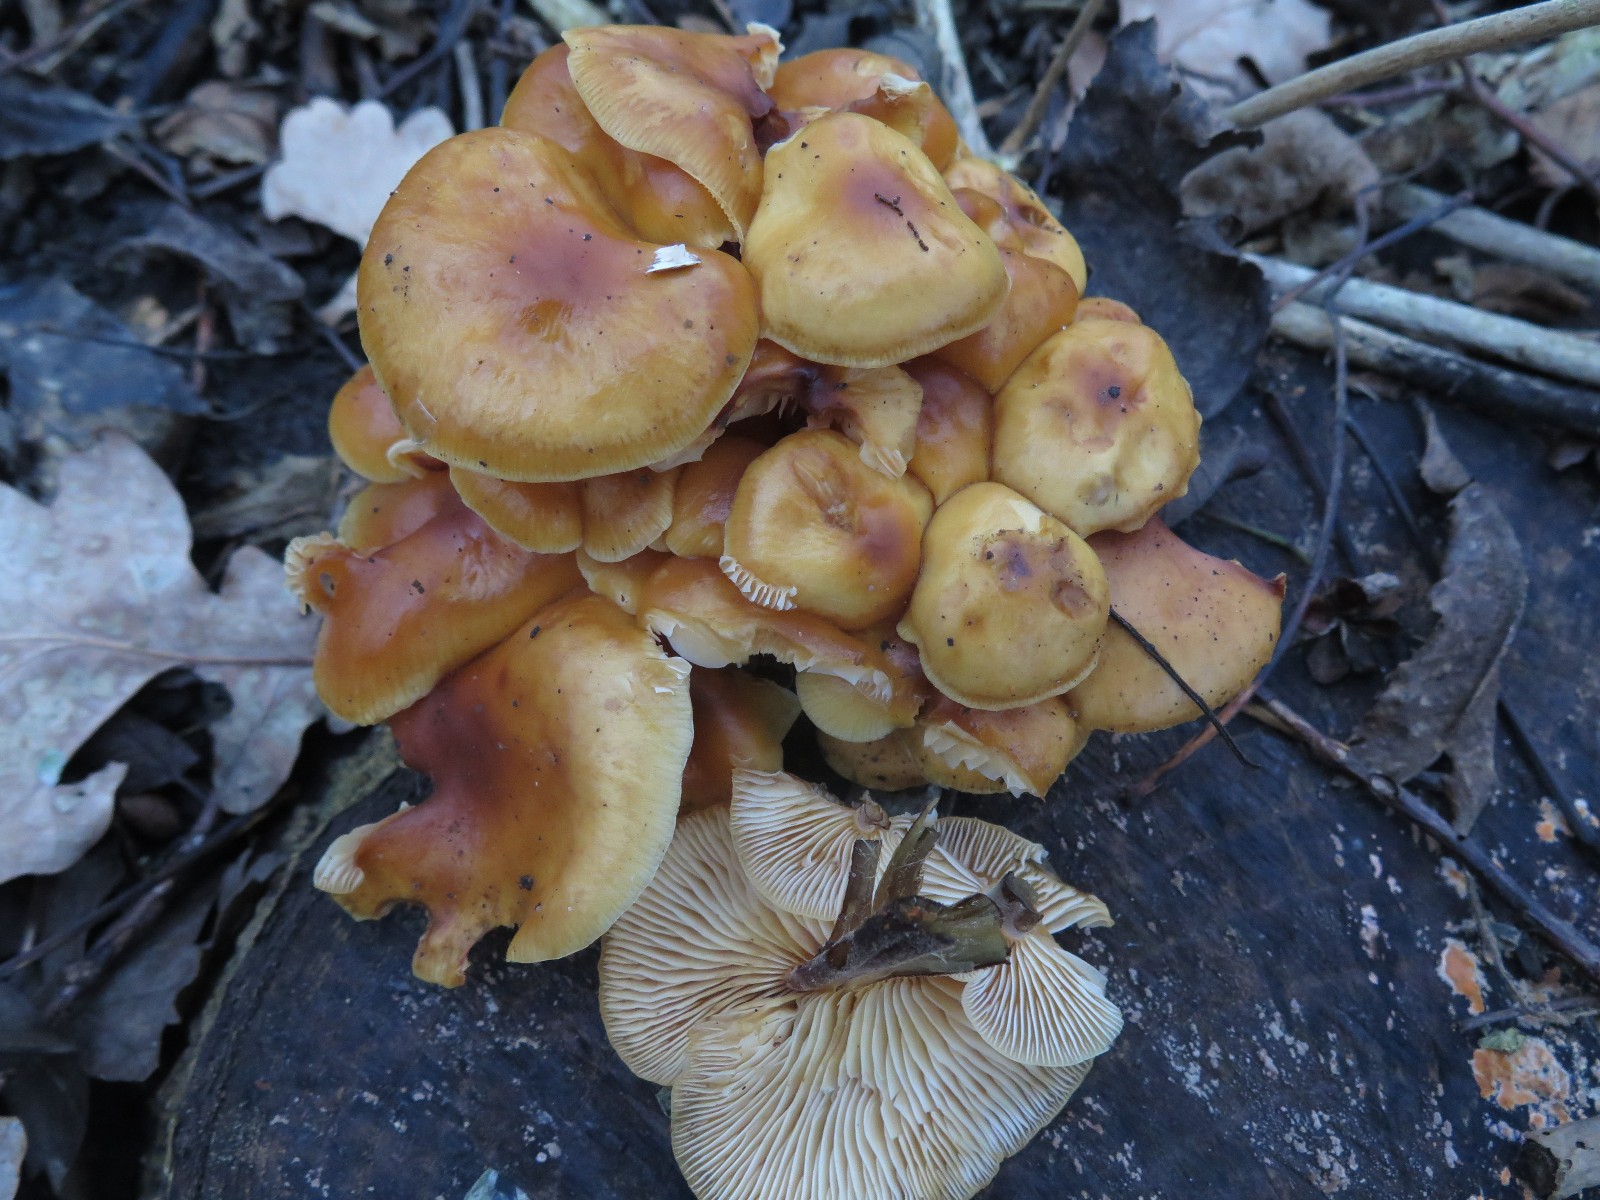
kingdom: Fungi
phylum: Basidiomycota
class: Agaricomycetes
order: Agaricales
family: Physalacriaceae
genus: Flammulina
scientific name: Flammulina velutipes
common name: gul fløjlsfod
